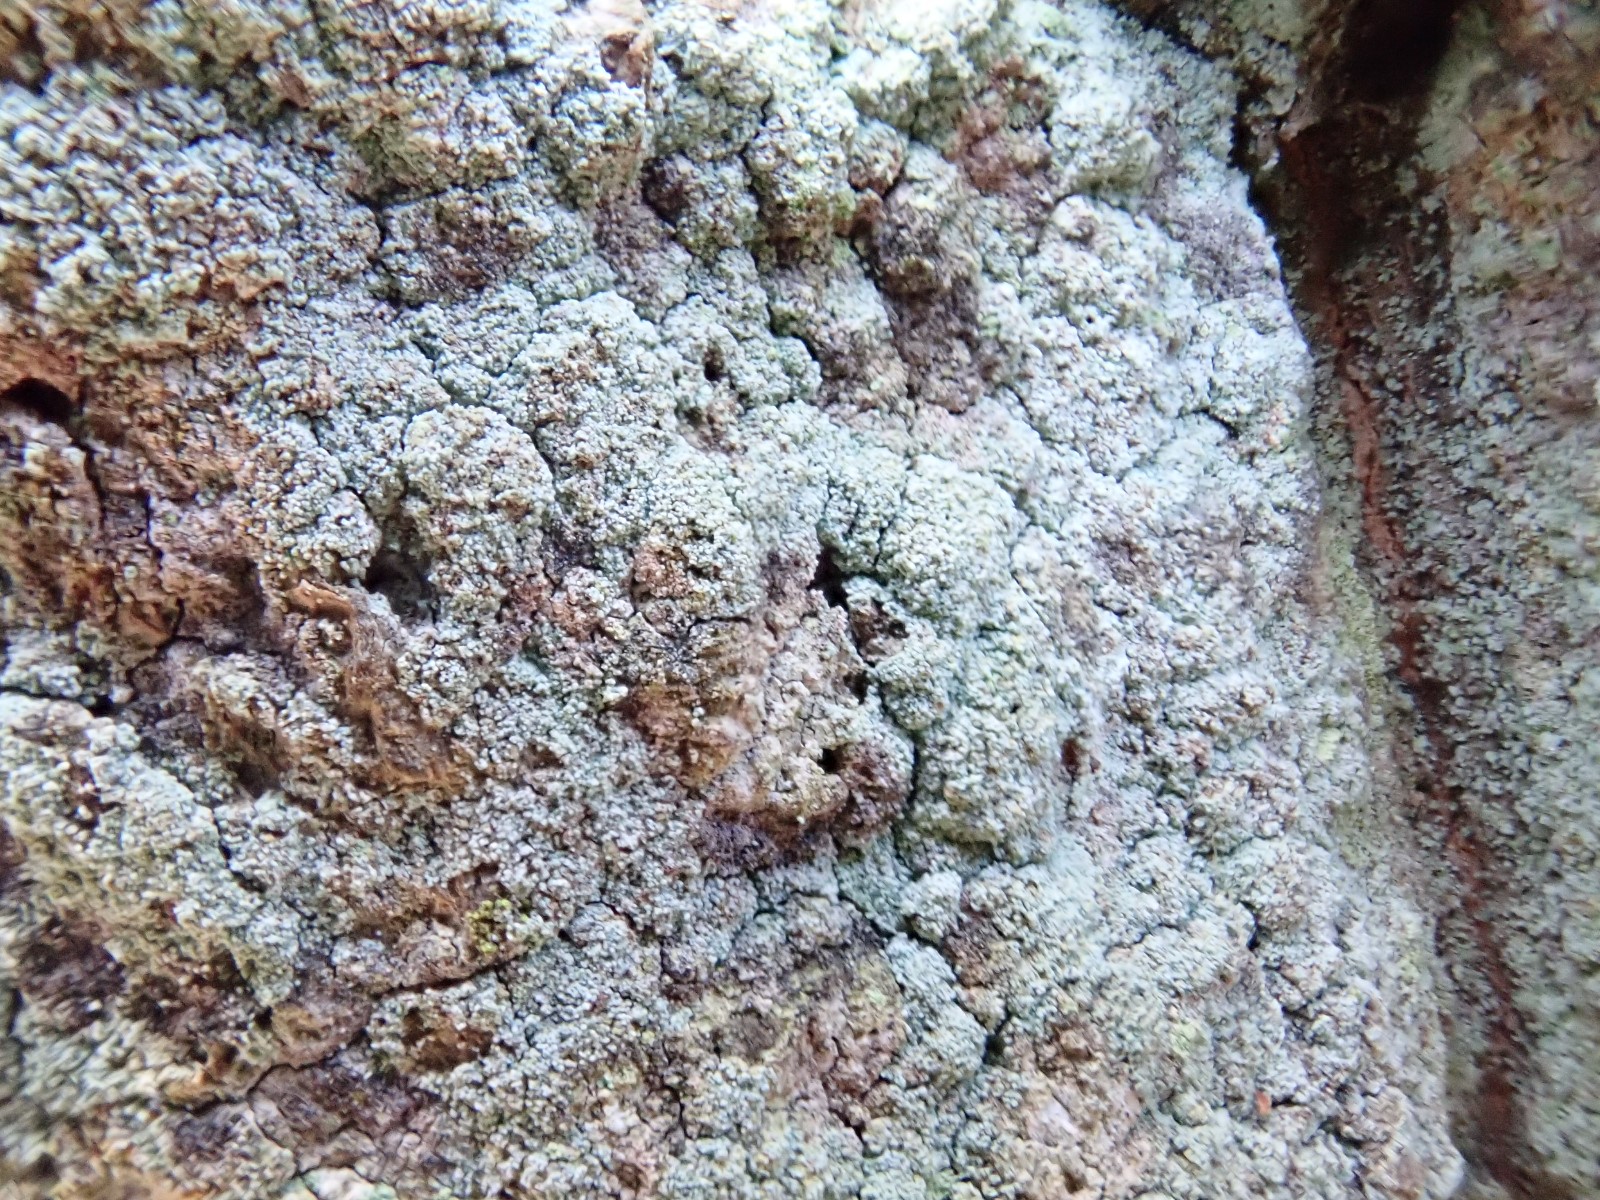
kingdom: Fungi
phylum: Ascomycota
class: Lecanoromycetes
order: Lecanorales
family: Stereocaulaceae
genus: Lepraria
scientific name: Lepraria incana
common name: almindelig støvlav
